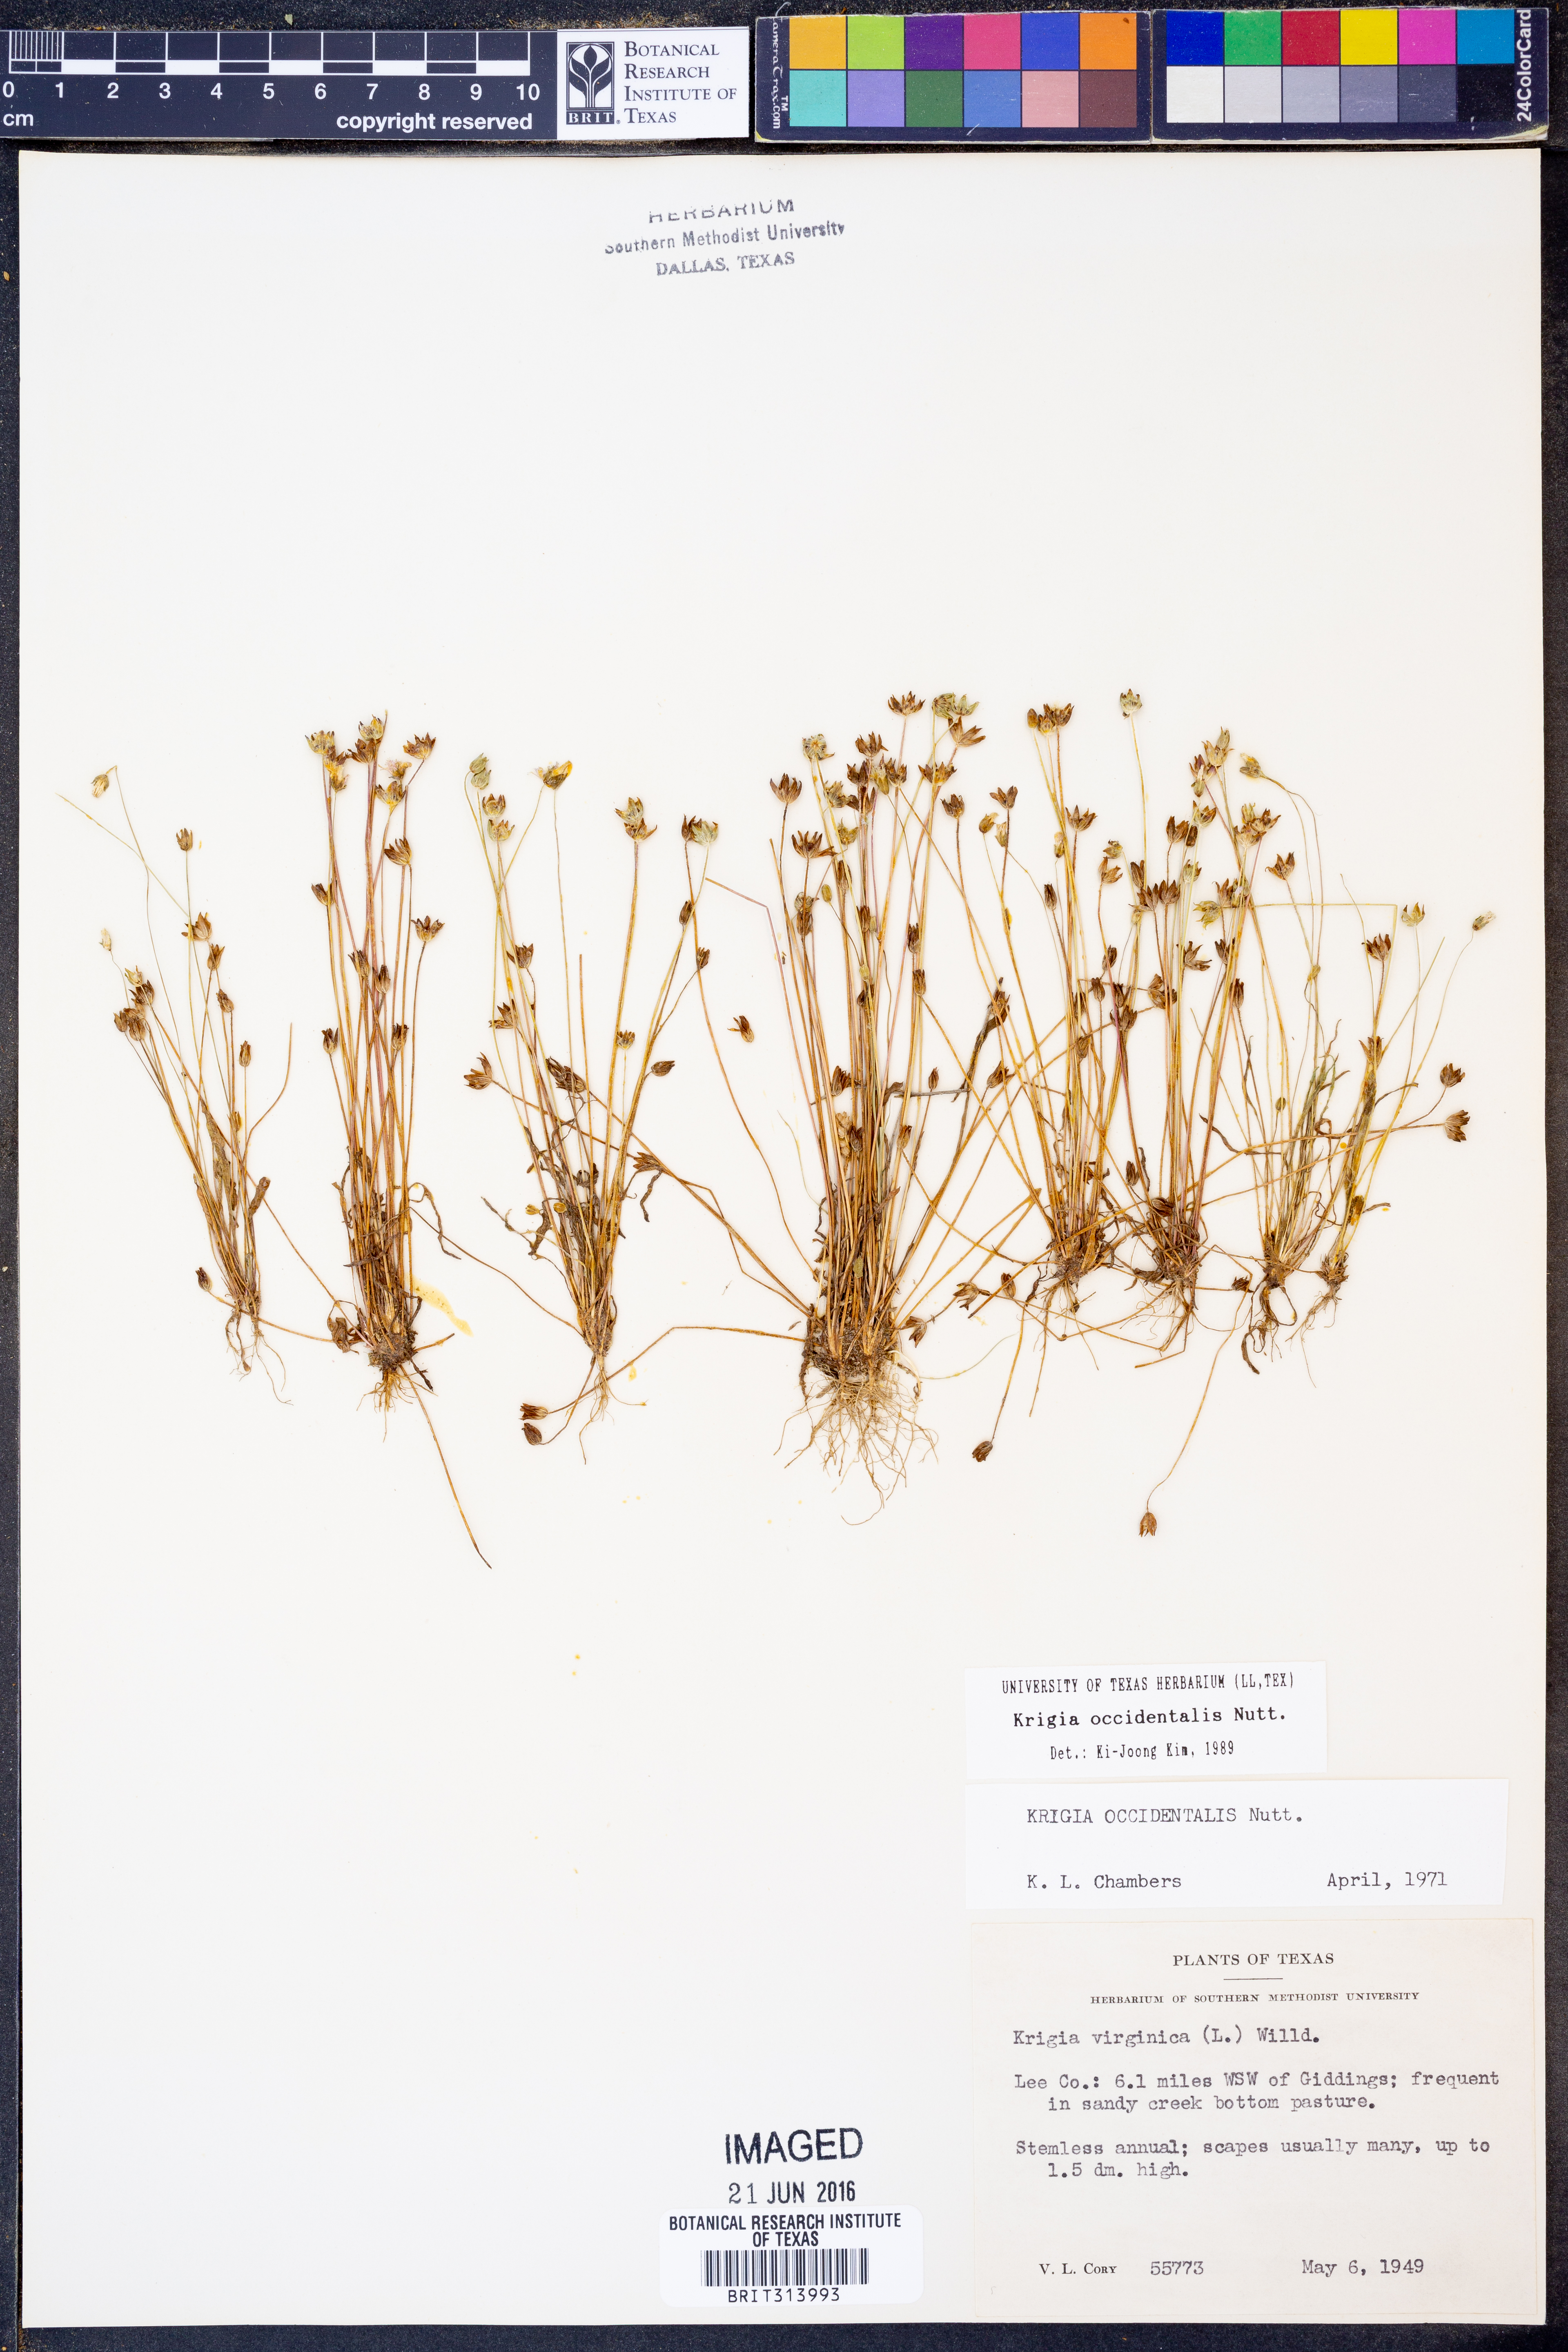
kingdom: Plantae
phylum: Tracheophyta
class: Magnoliopsida
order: Asterales
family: Asteraceae
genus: Krigia
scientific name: Krigia occidentalis
